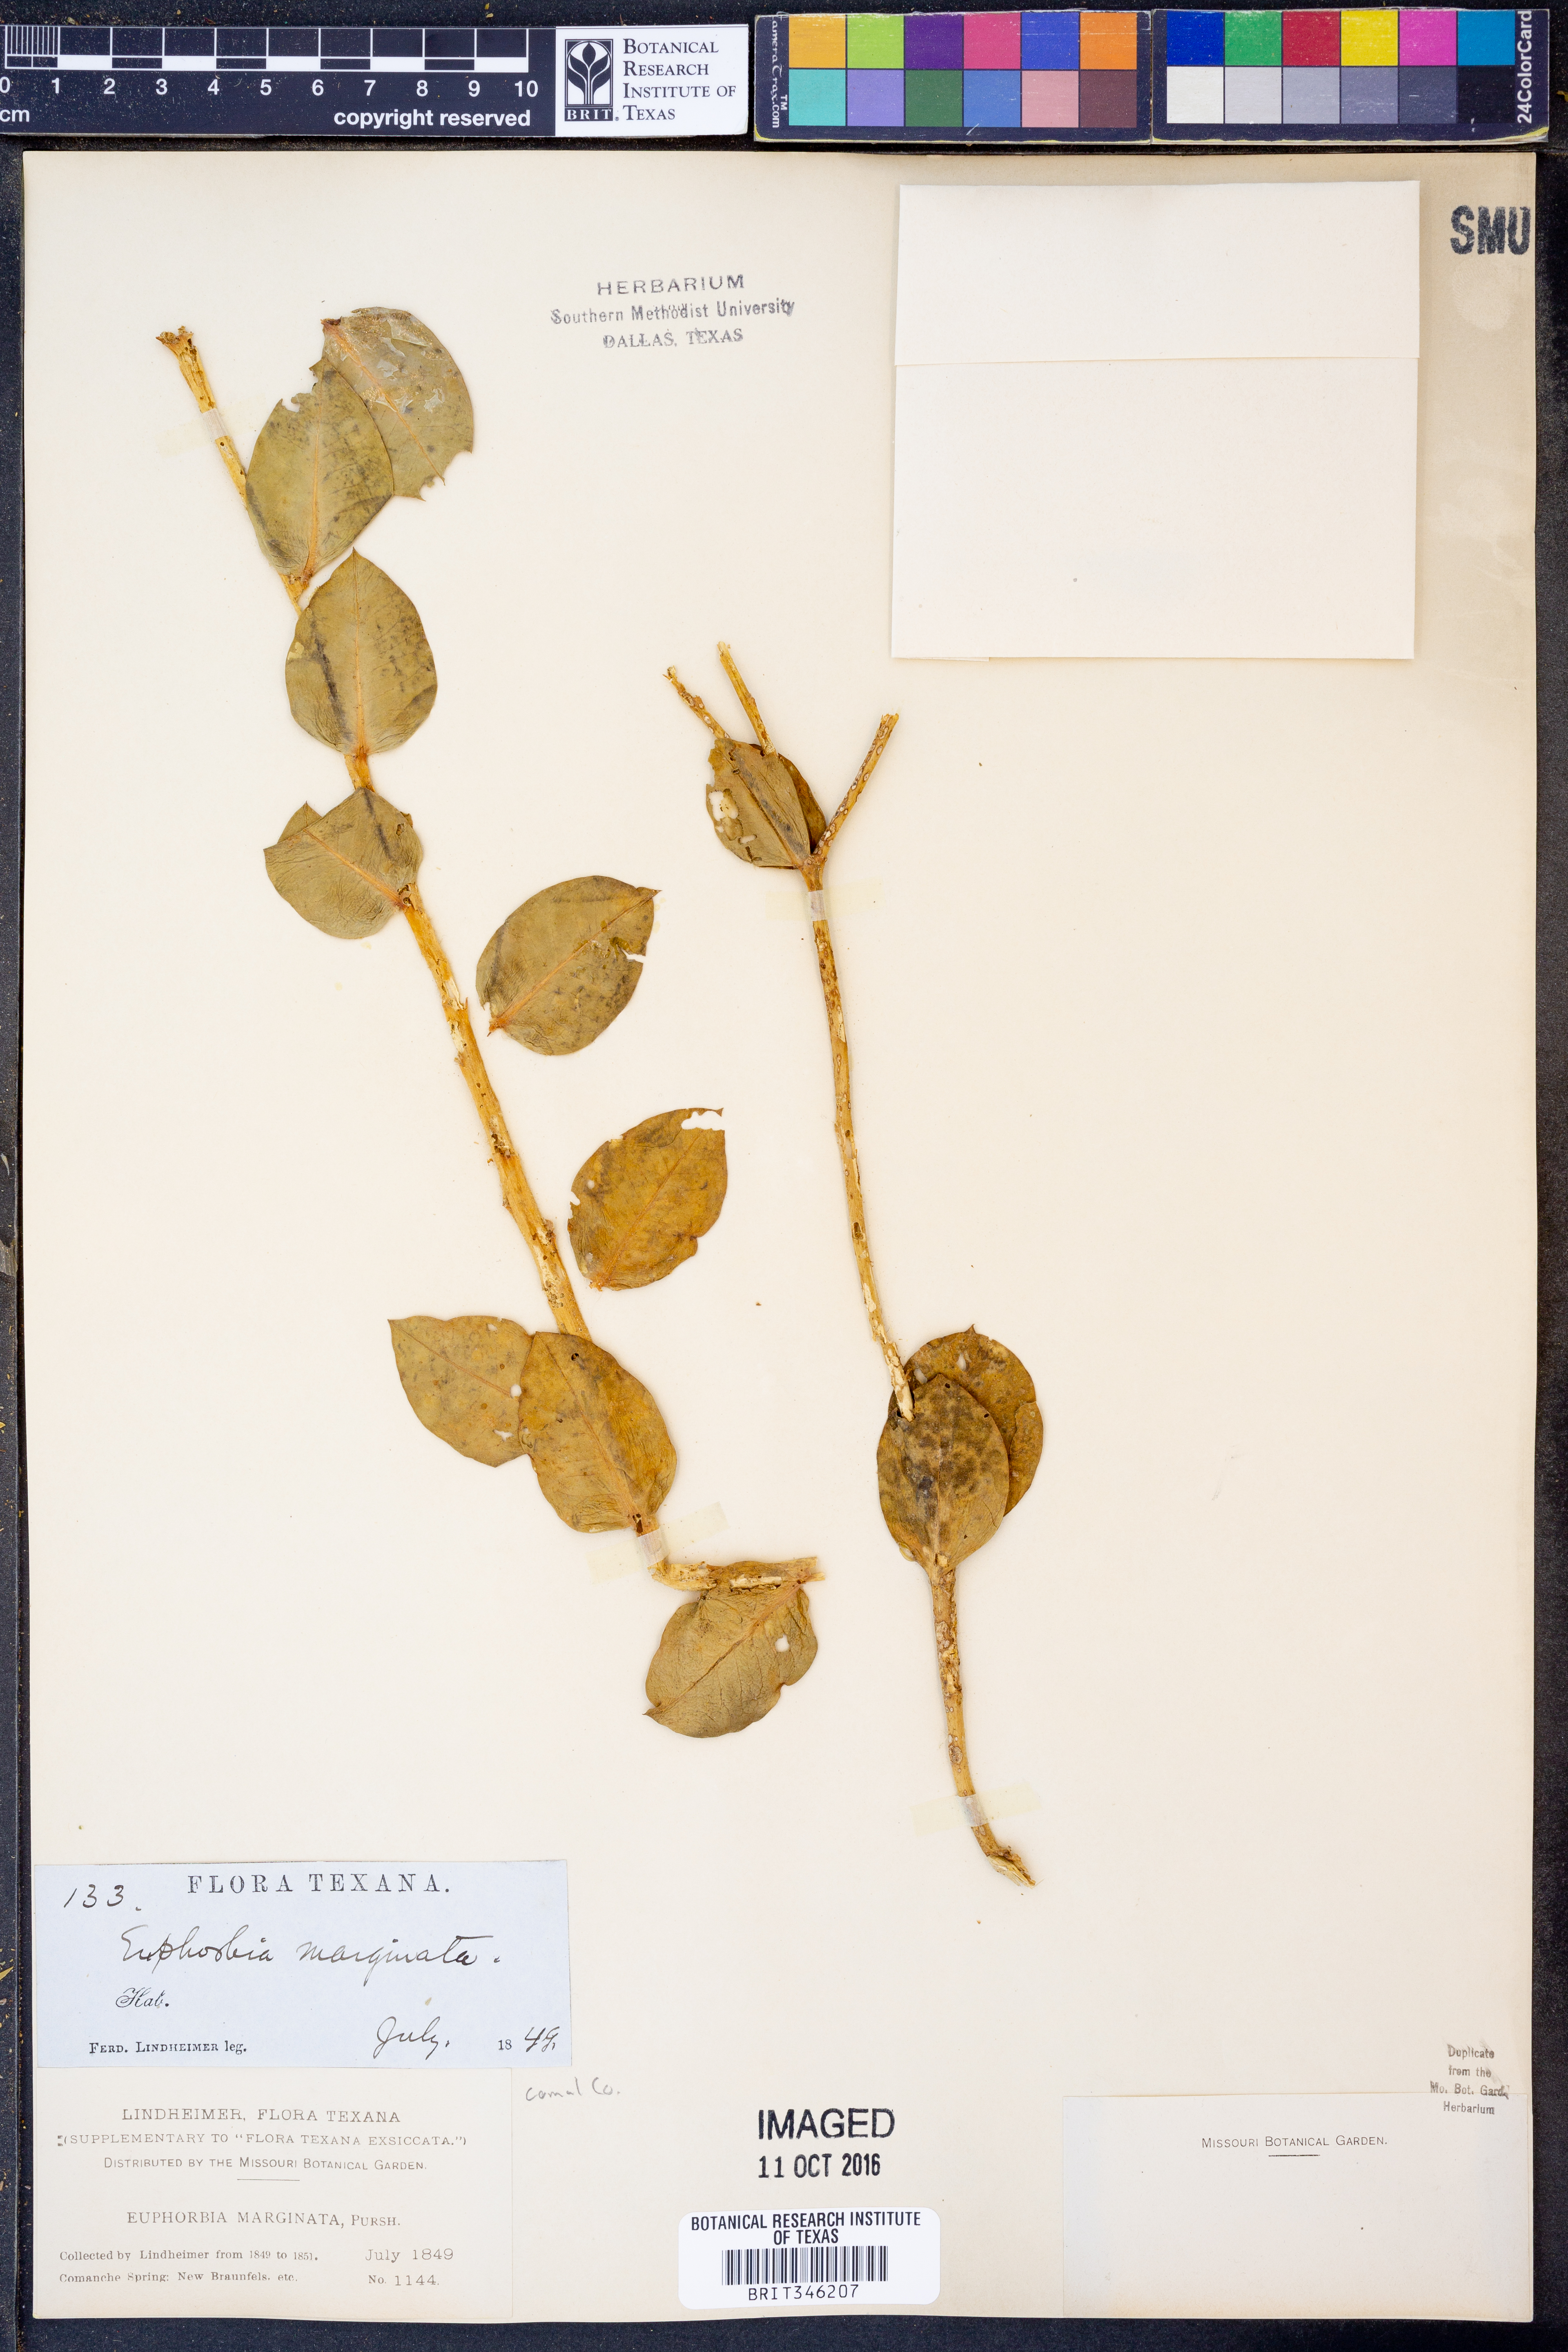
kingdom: Plantae
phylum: Tracheophyta
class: Magnoliopsida
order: Malpighiales
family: Euphorbiaceae
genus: Euphorbia
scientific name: Euphorbia marginata
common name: Ghostweed
